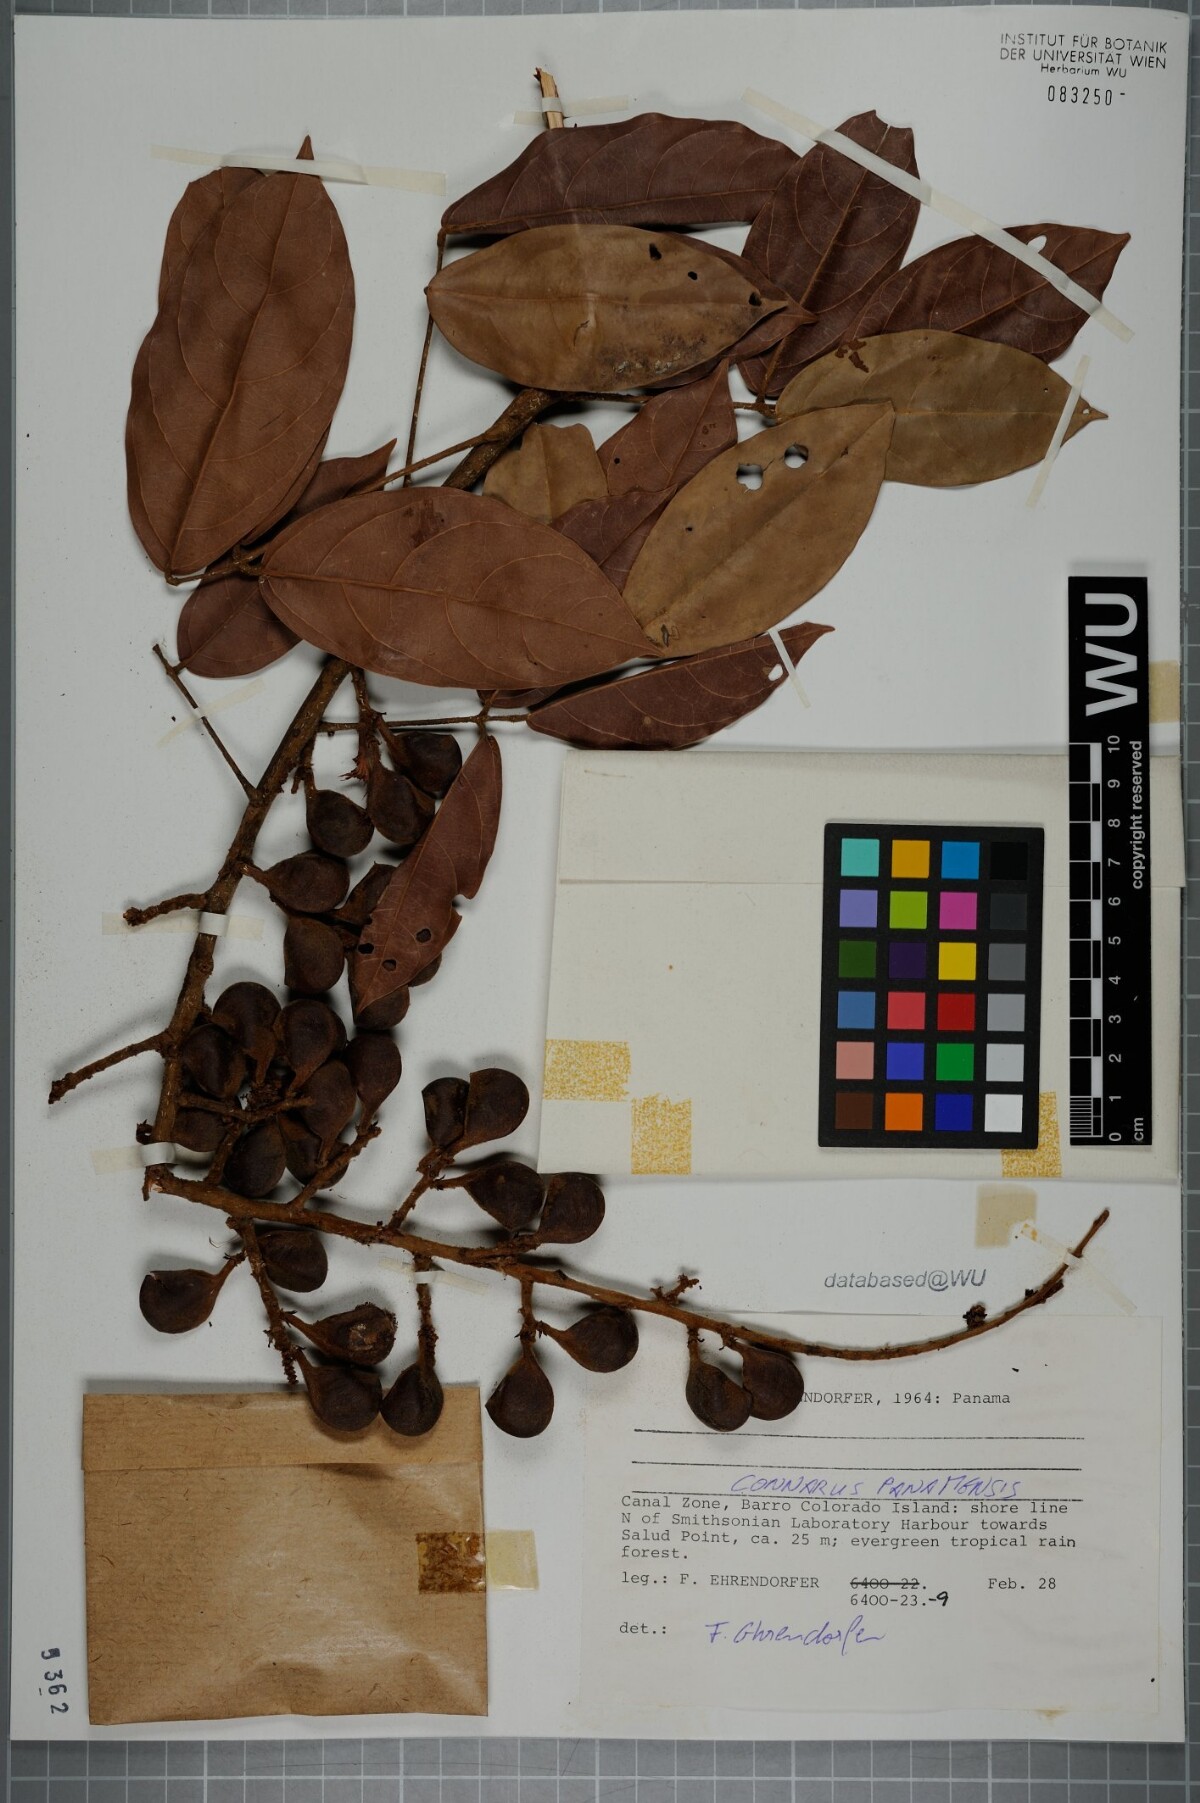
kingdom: Plantae
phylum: Tracheophyta
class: Magnoliopsida
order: Oxalidales
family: Connaraceae
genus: Connarus
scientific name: Connarus panamensis
